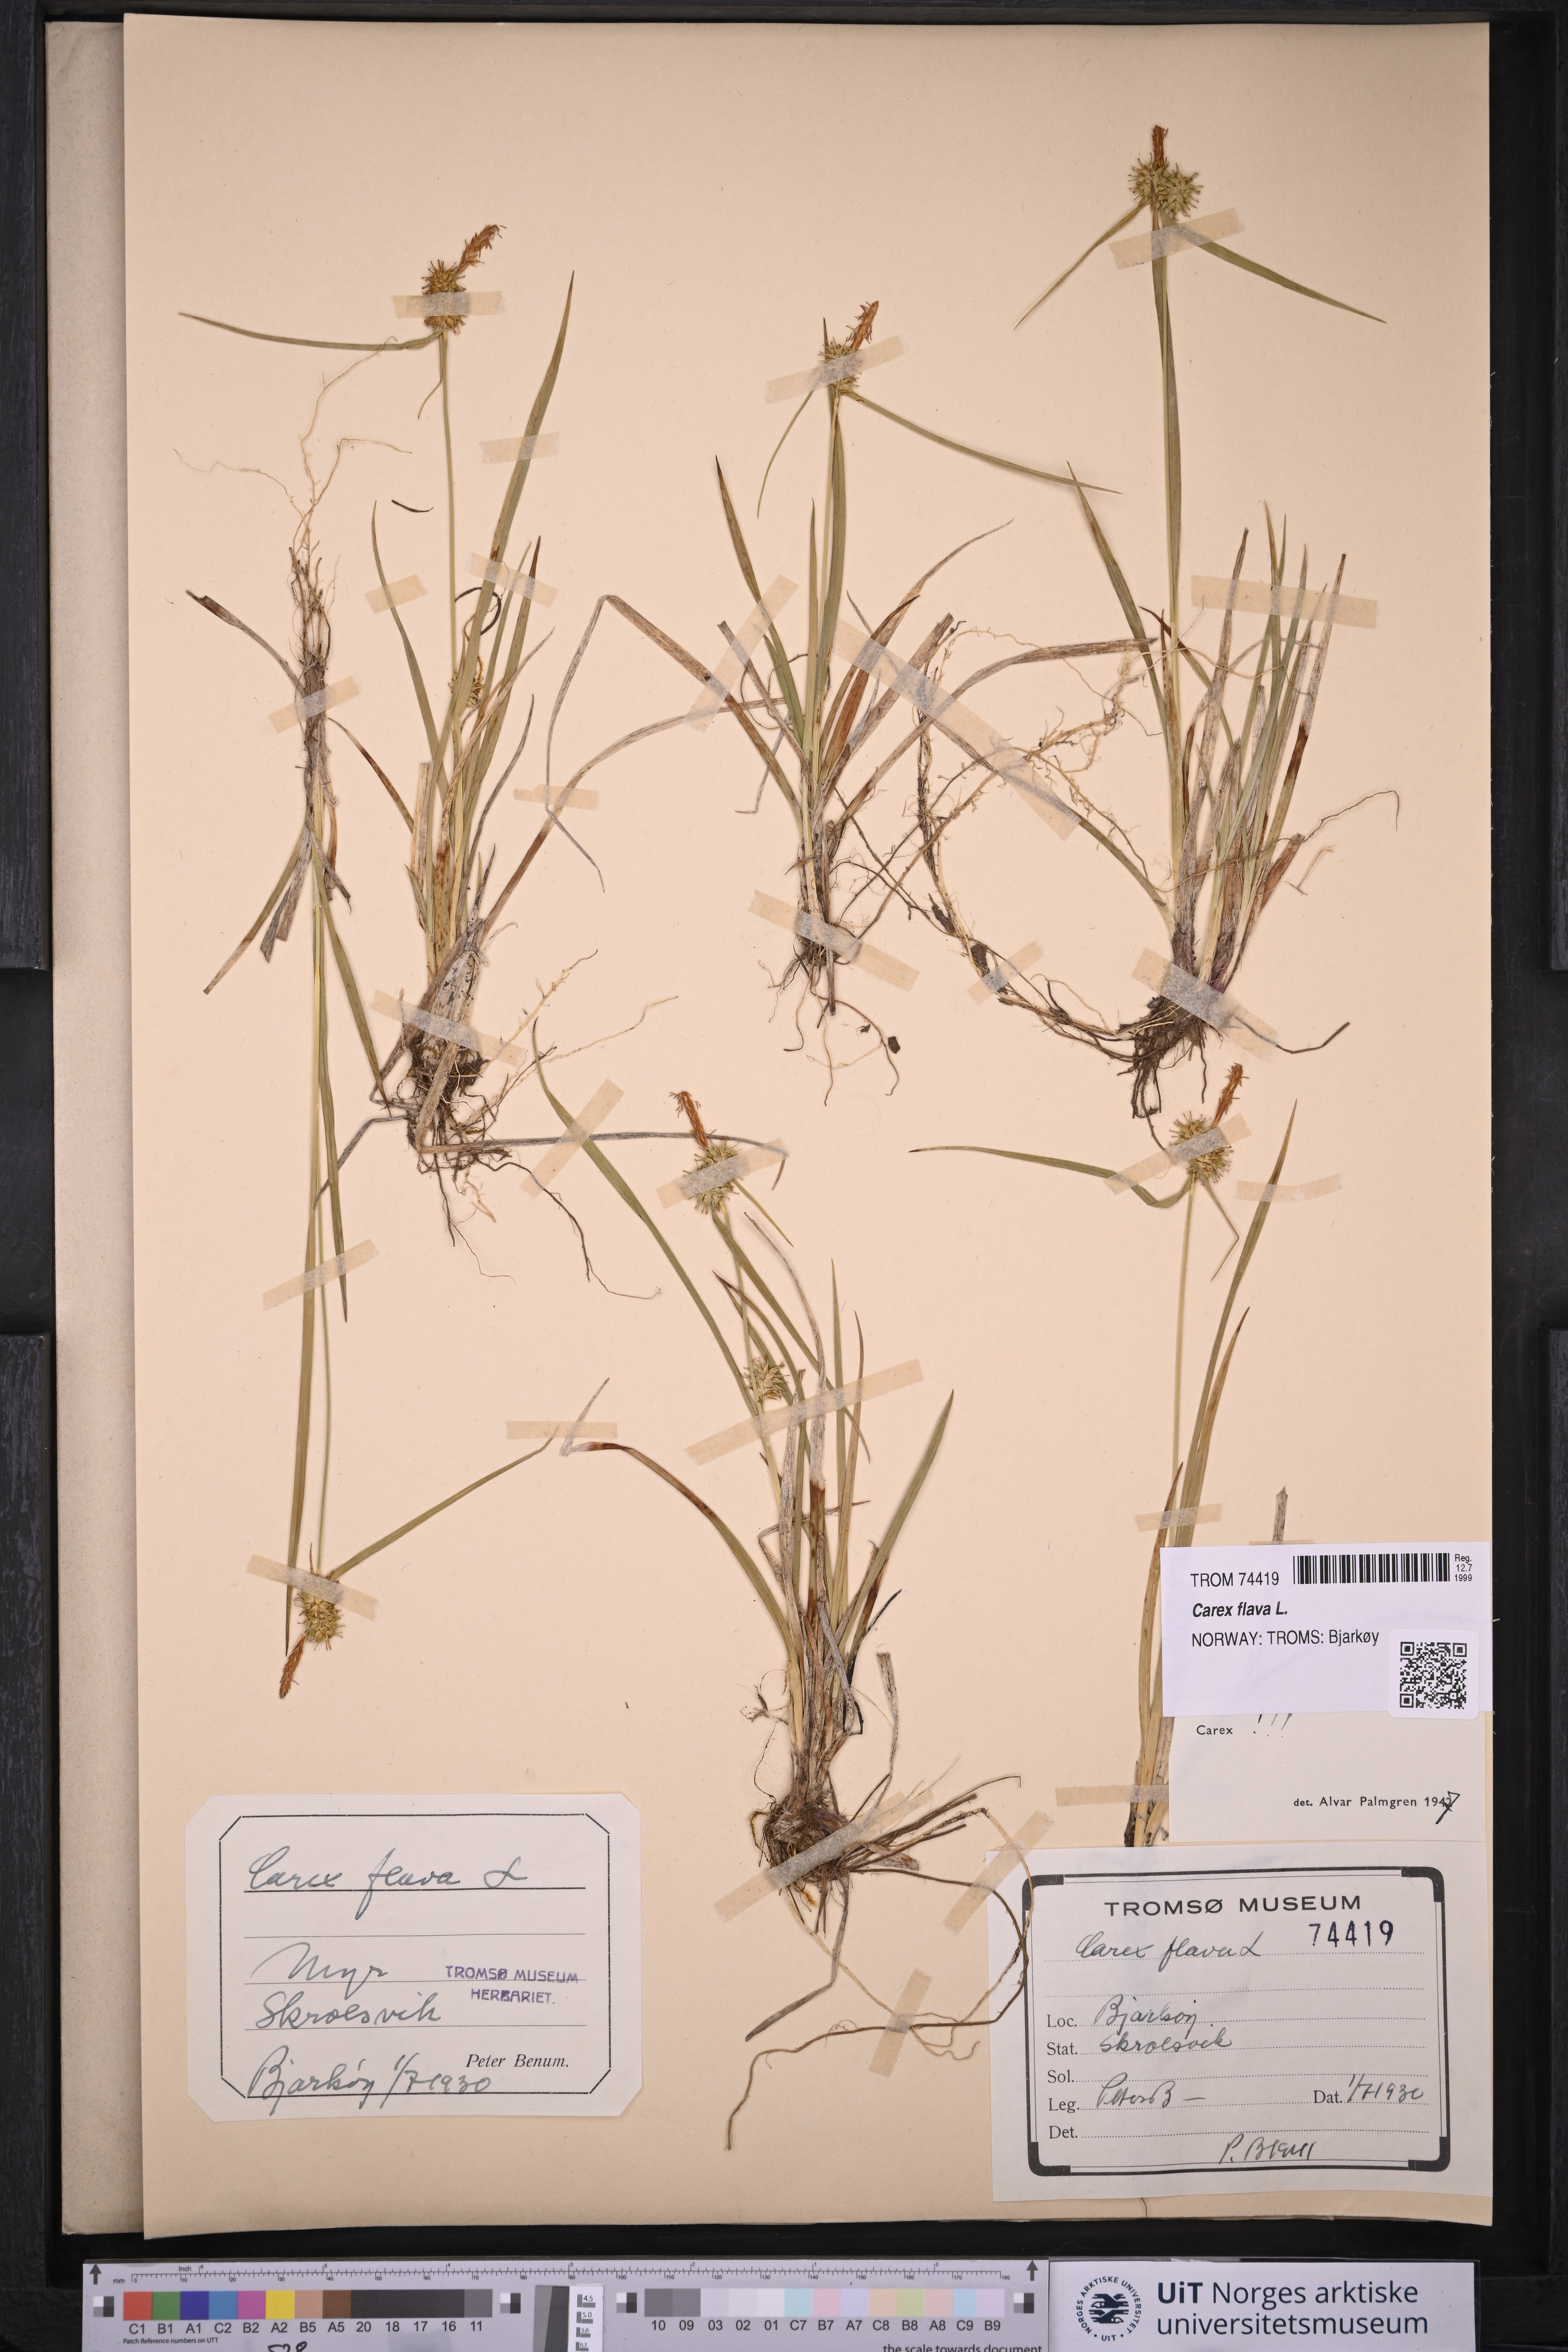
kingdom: Plantae
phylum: Tracheophyta
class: Liliopsida
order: Poales
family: Cyperaceae
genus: Carex
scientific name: Carex flava
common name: Large yellow-sedge
